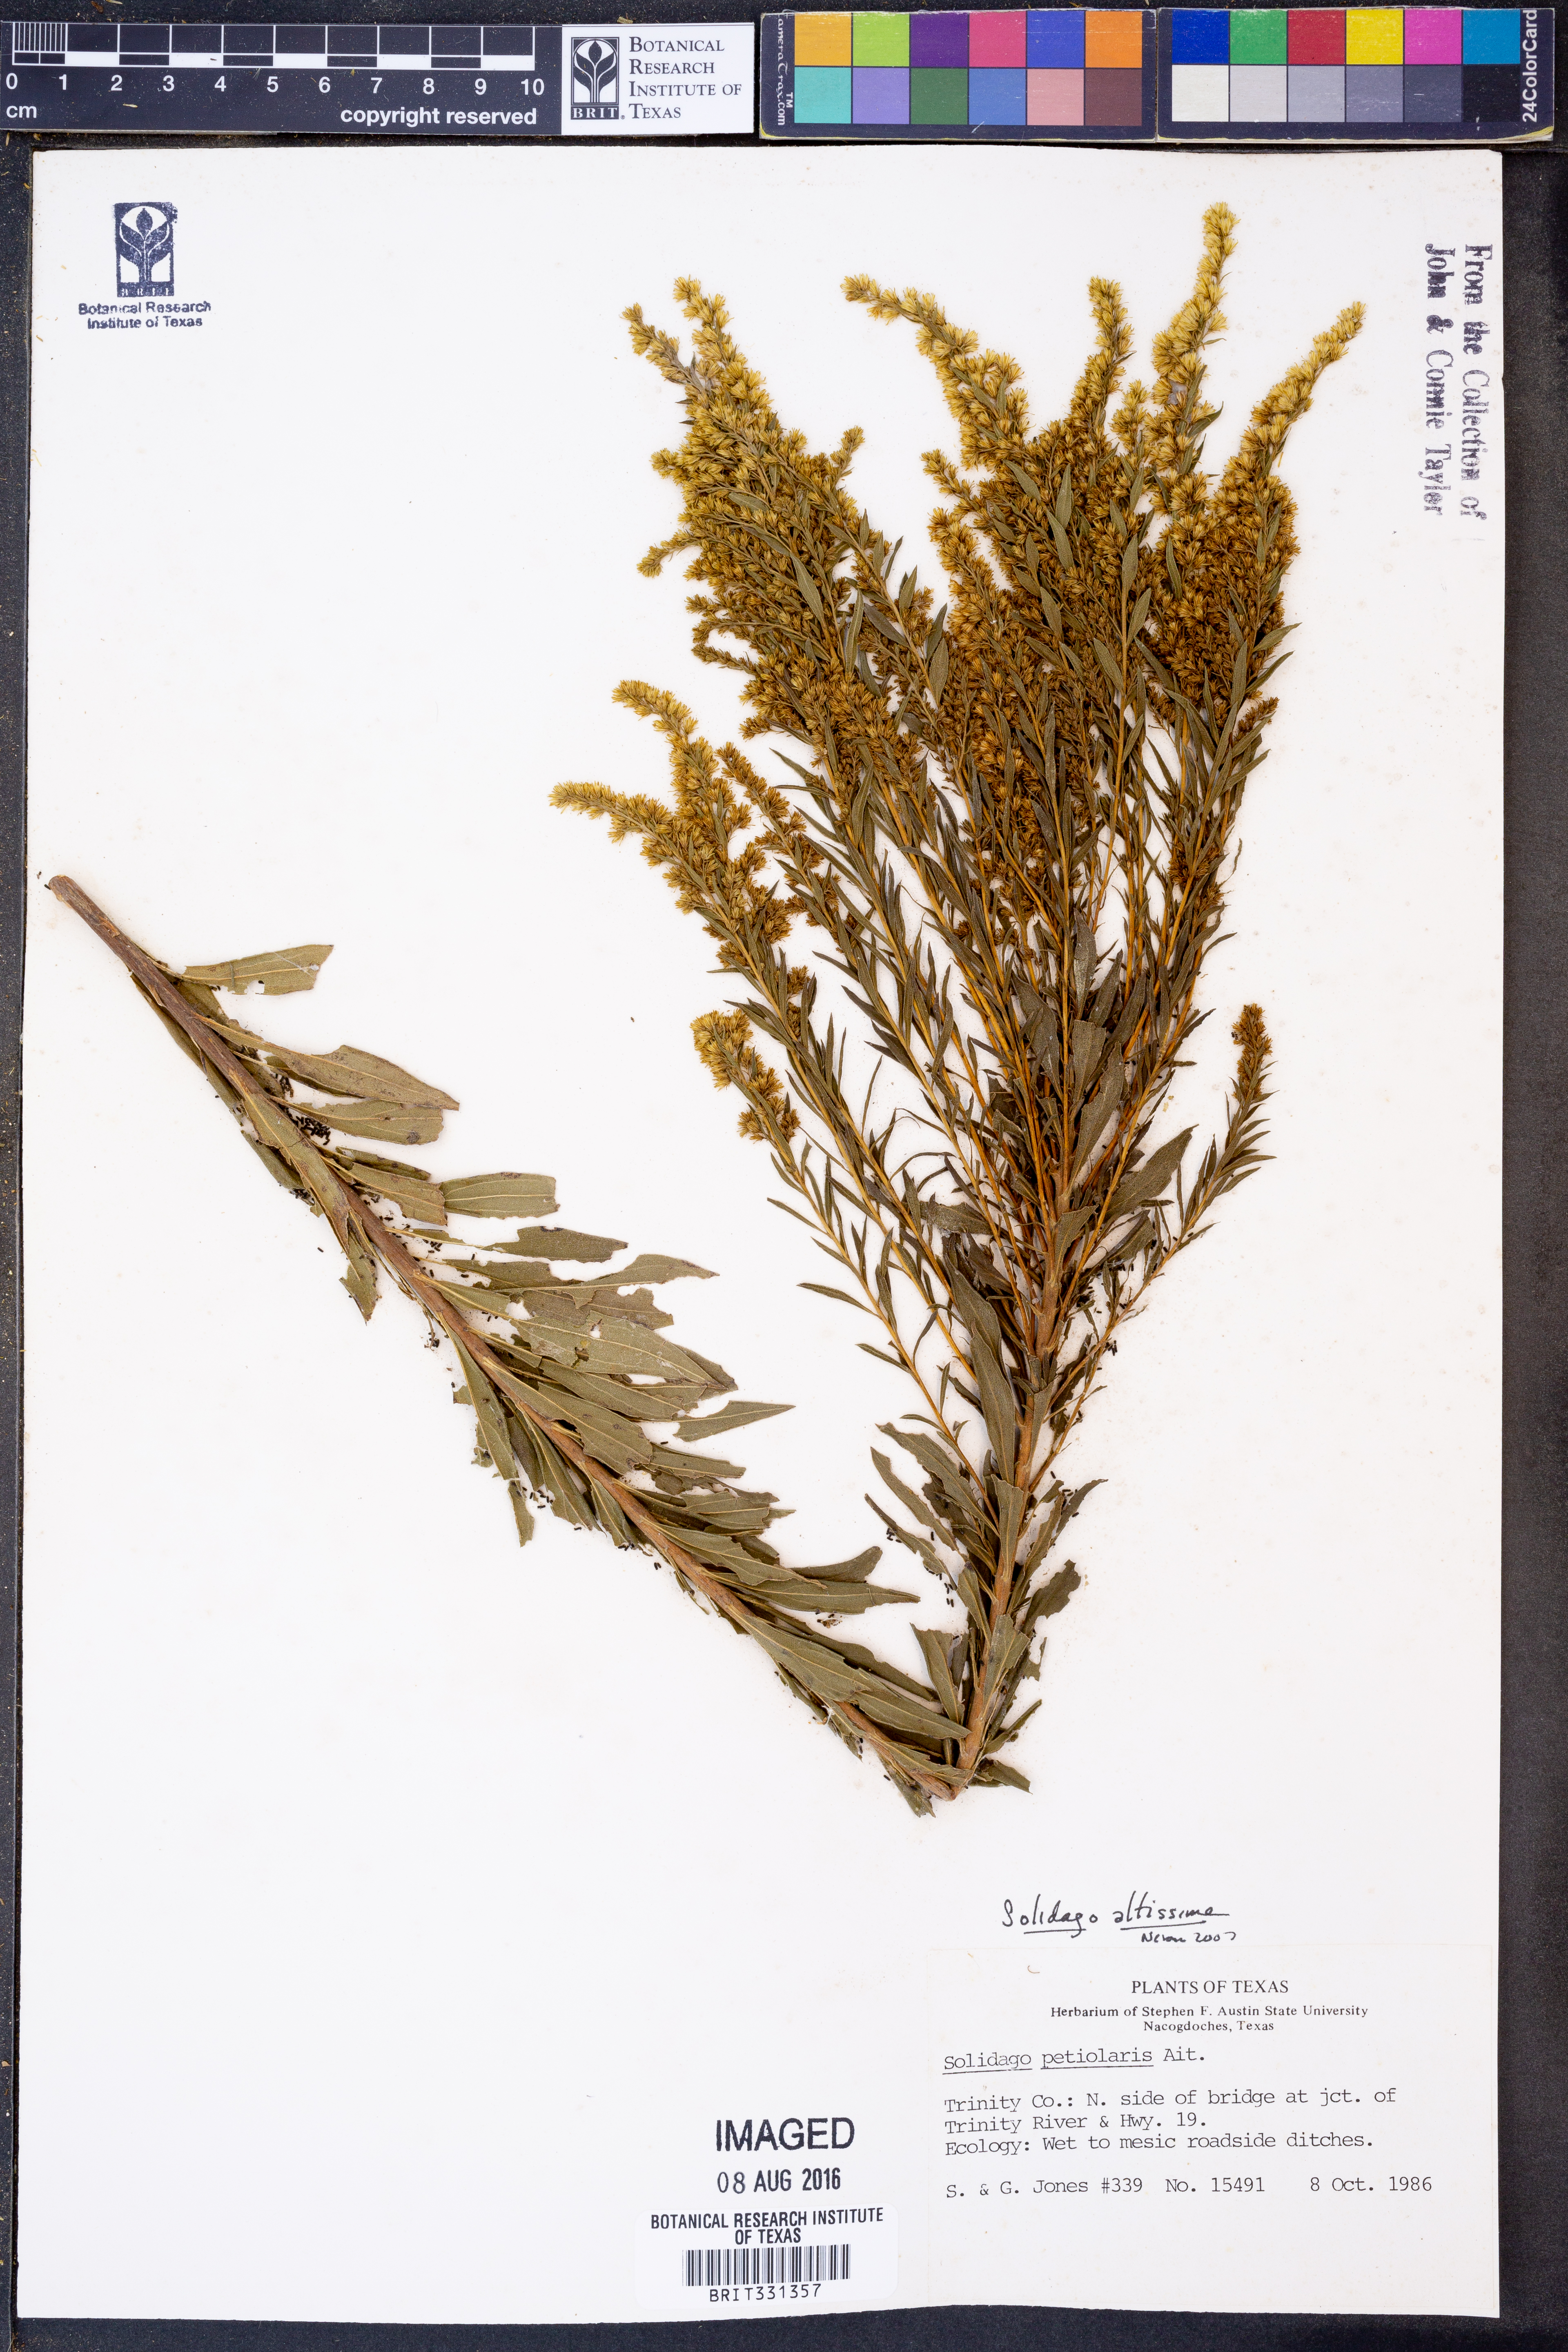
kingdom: Plantae
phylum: Tracheophyta
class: Magnoliopsida
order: Asterales
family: Asteraceae
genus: Solidago
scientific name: Solidago altissima
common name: Late goldenrod
